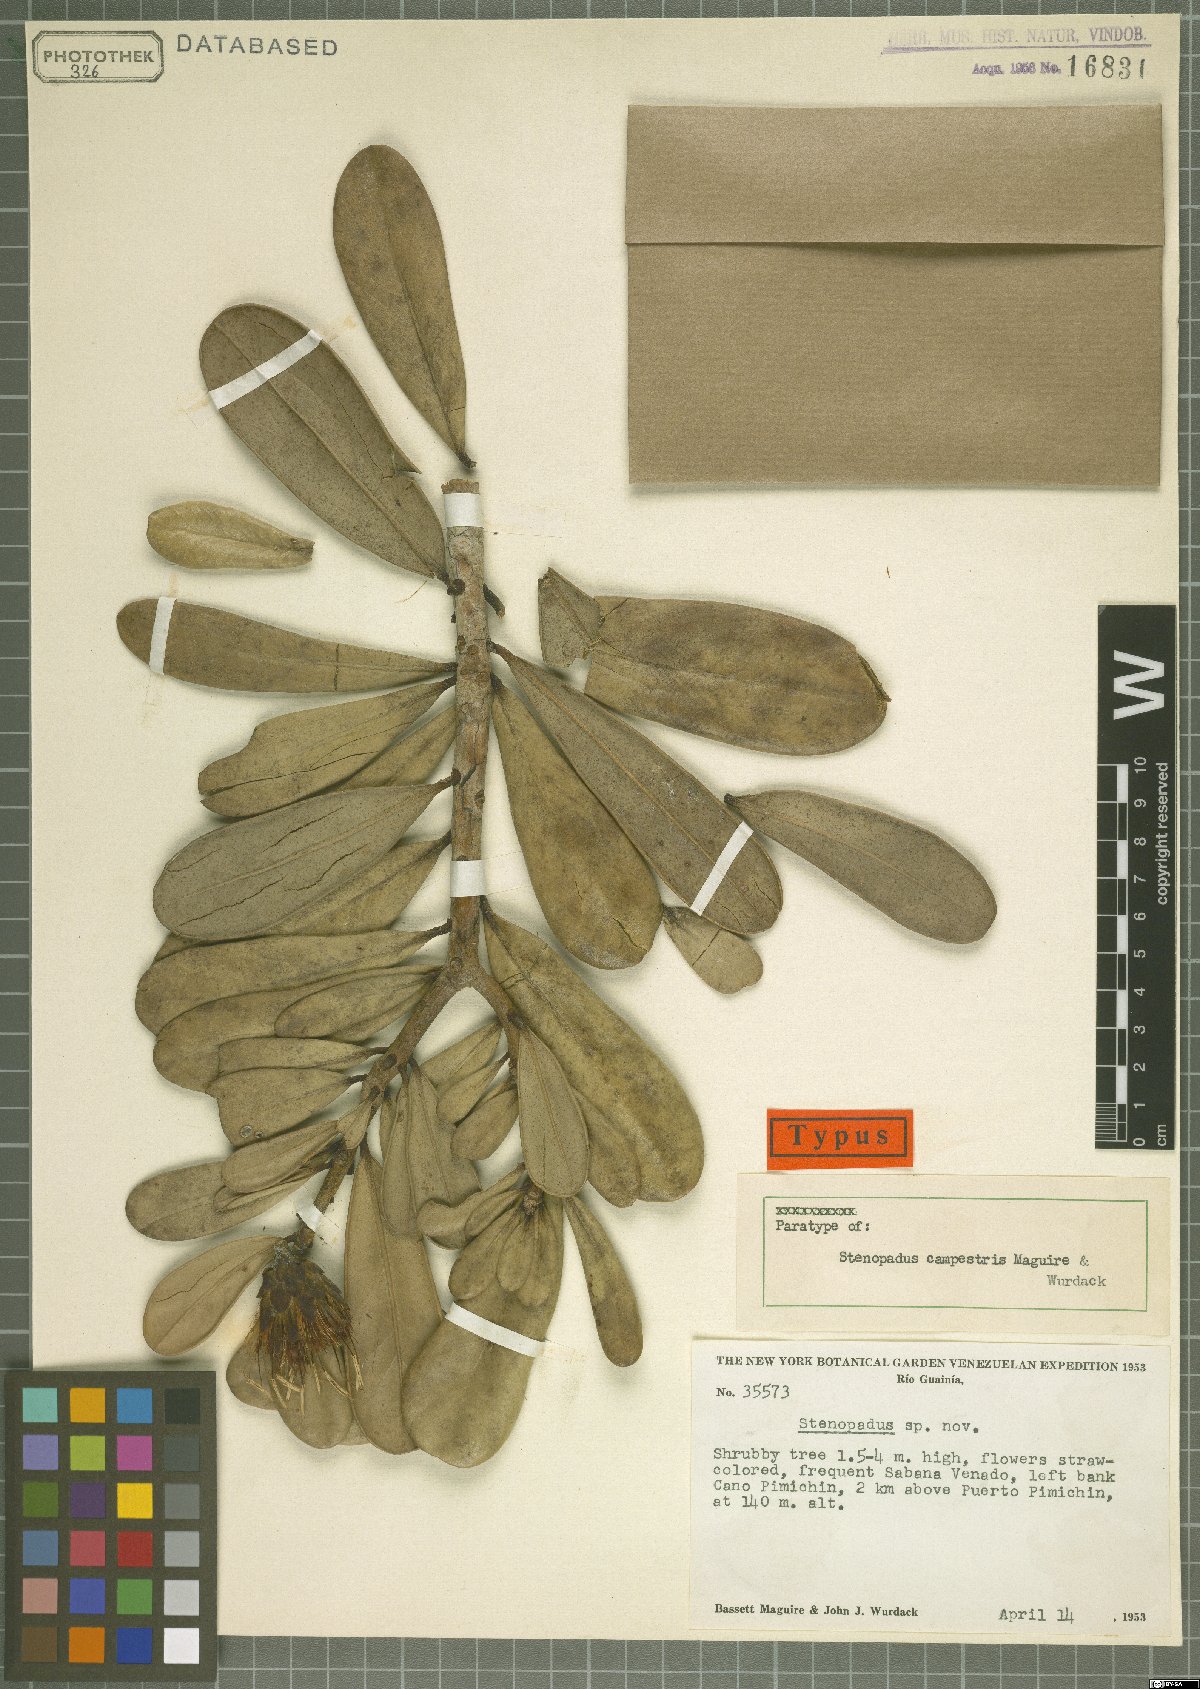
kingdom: Plantae
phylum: Tracheophyta
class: Magnoliopsida
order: Asterales
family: Asteraceae
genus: Stenopadus
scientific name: Stenopadus campestris
